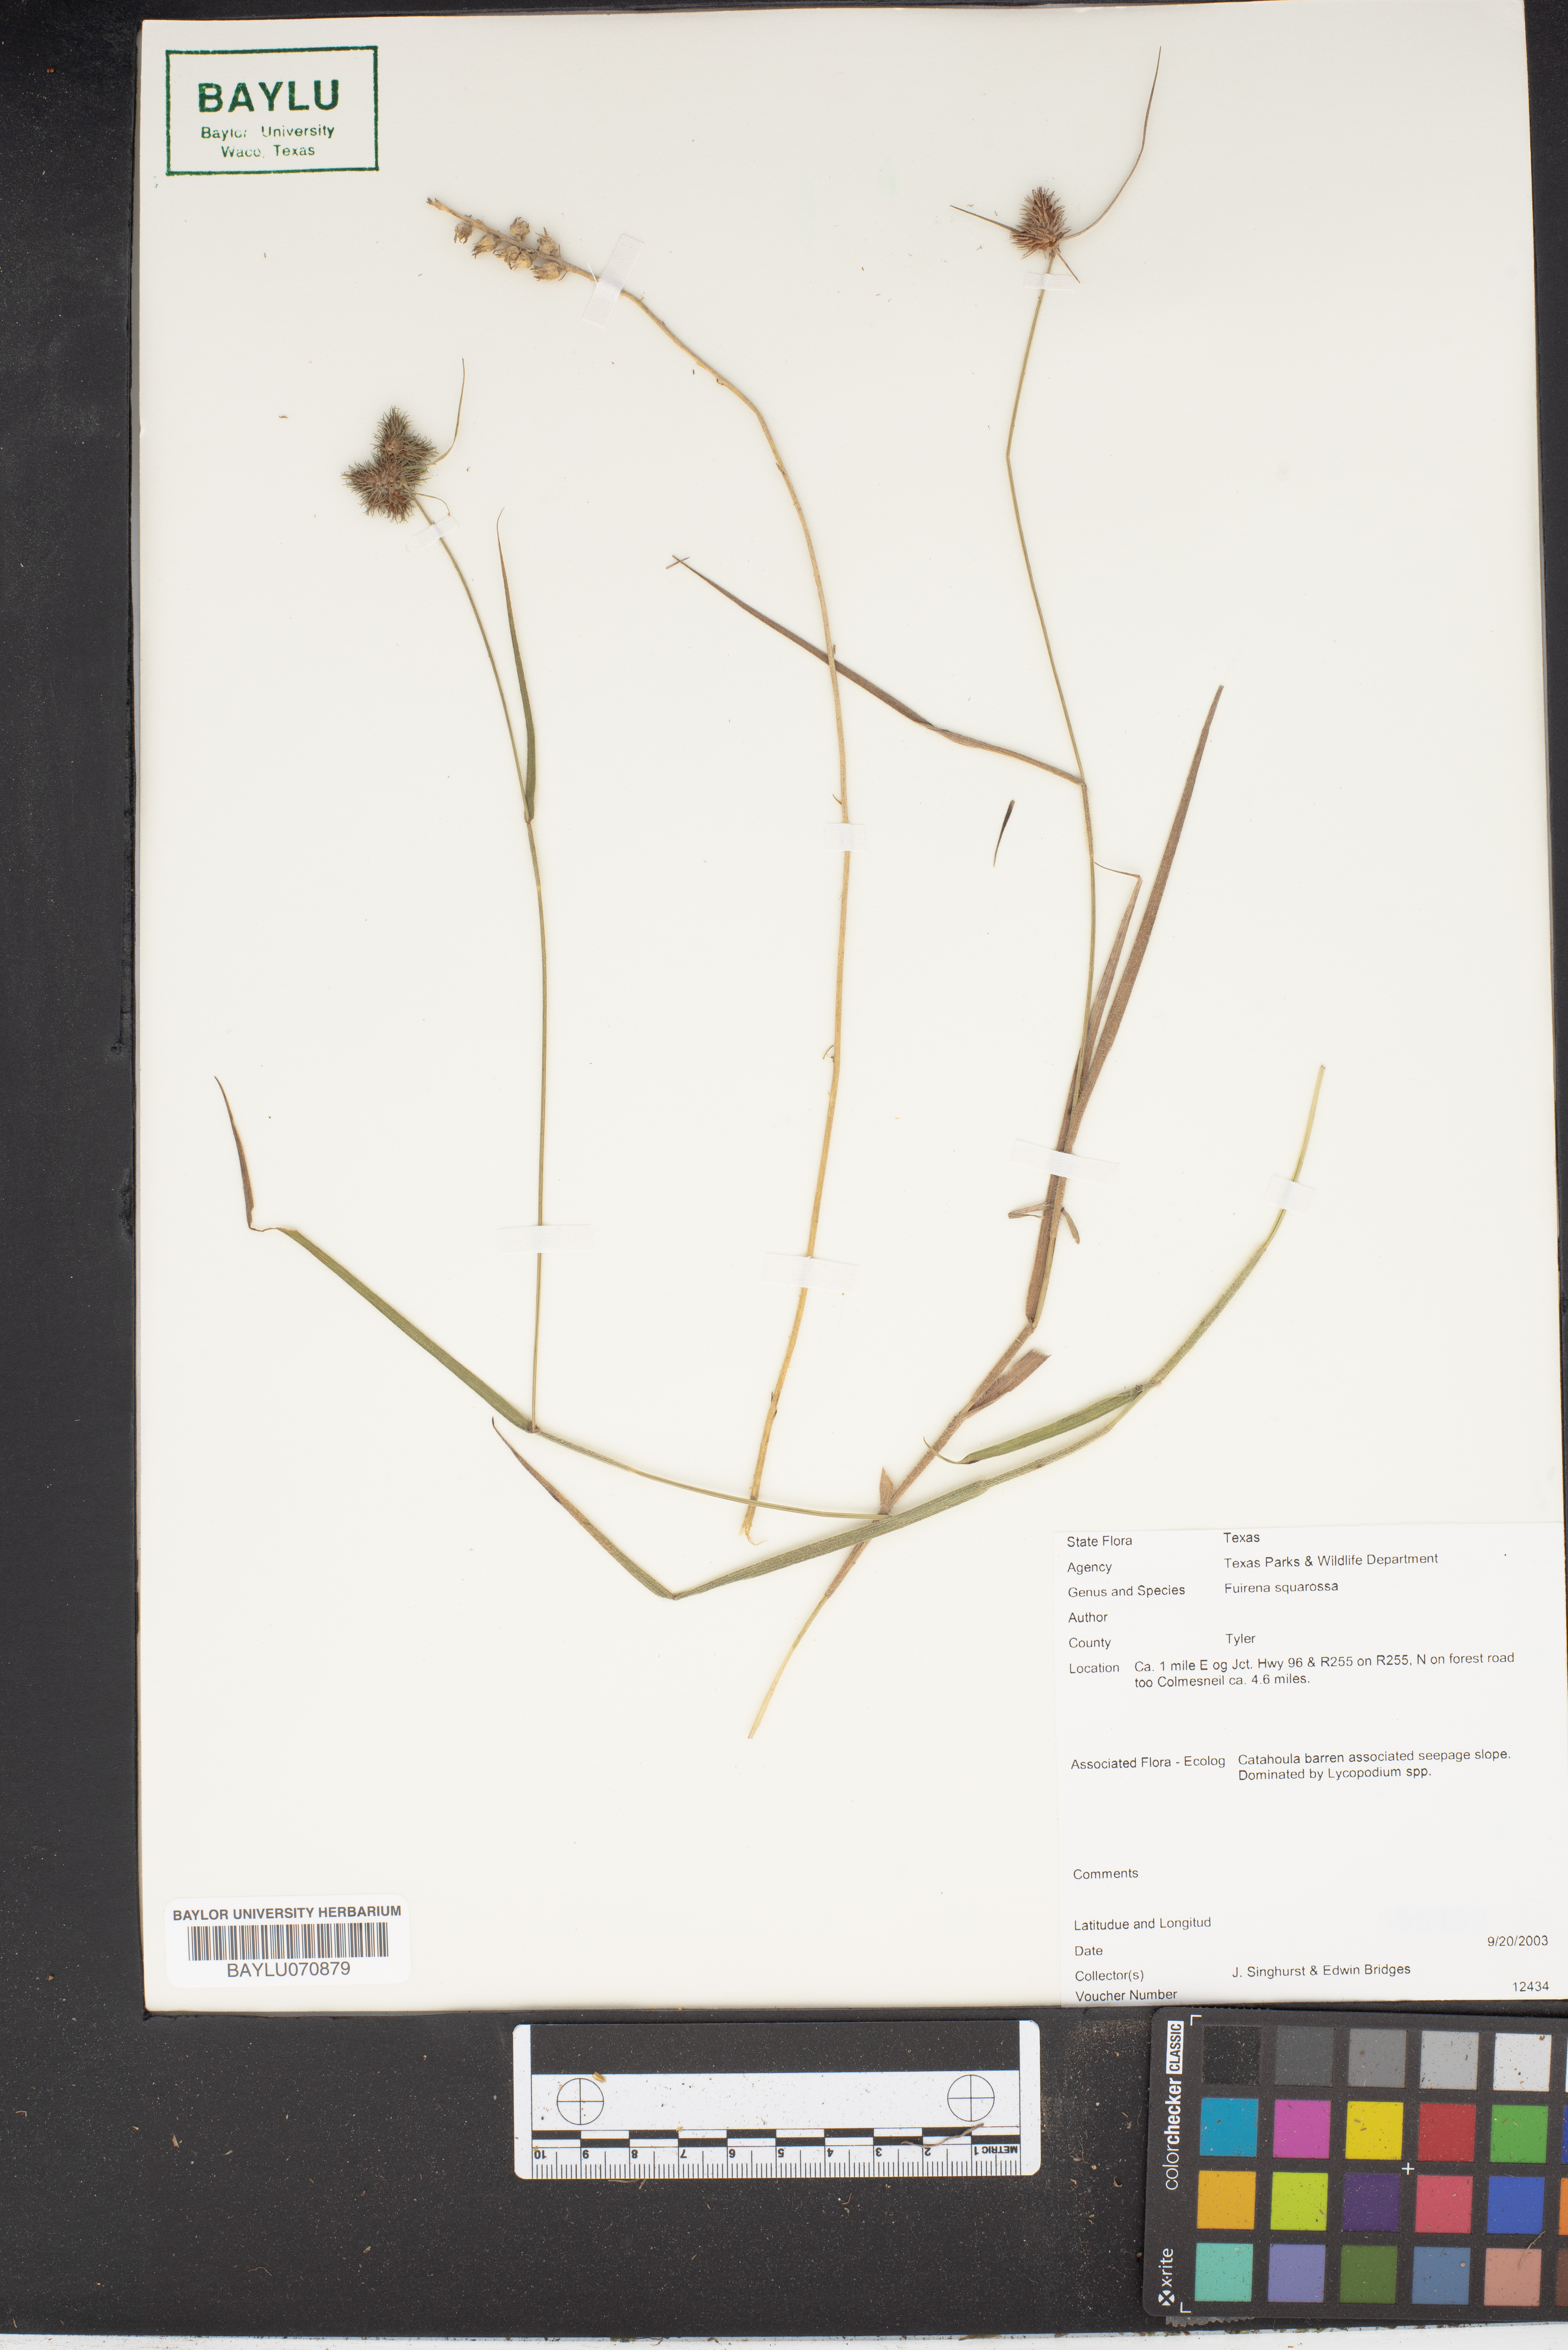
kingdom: Plantae
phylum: Tracheophyta
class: Liliopsida
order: Poales
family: Cyperaceae
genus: Fuirena
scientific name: Fuirena squarrosa
